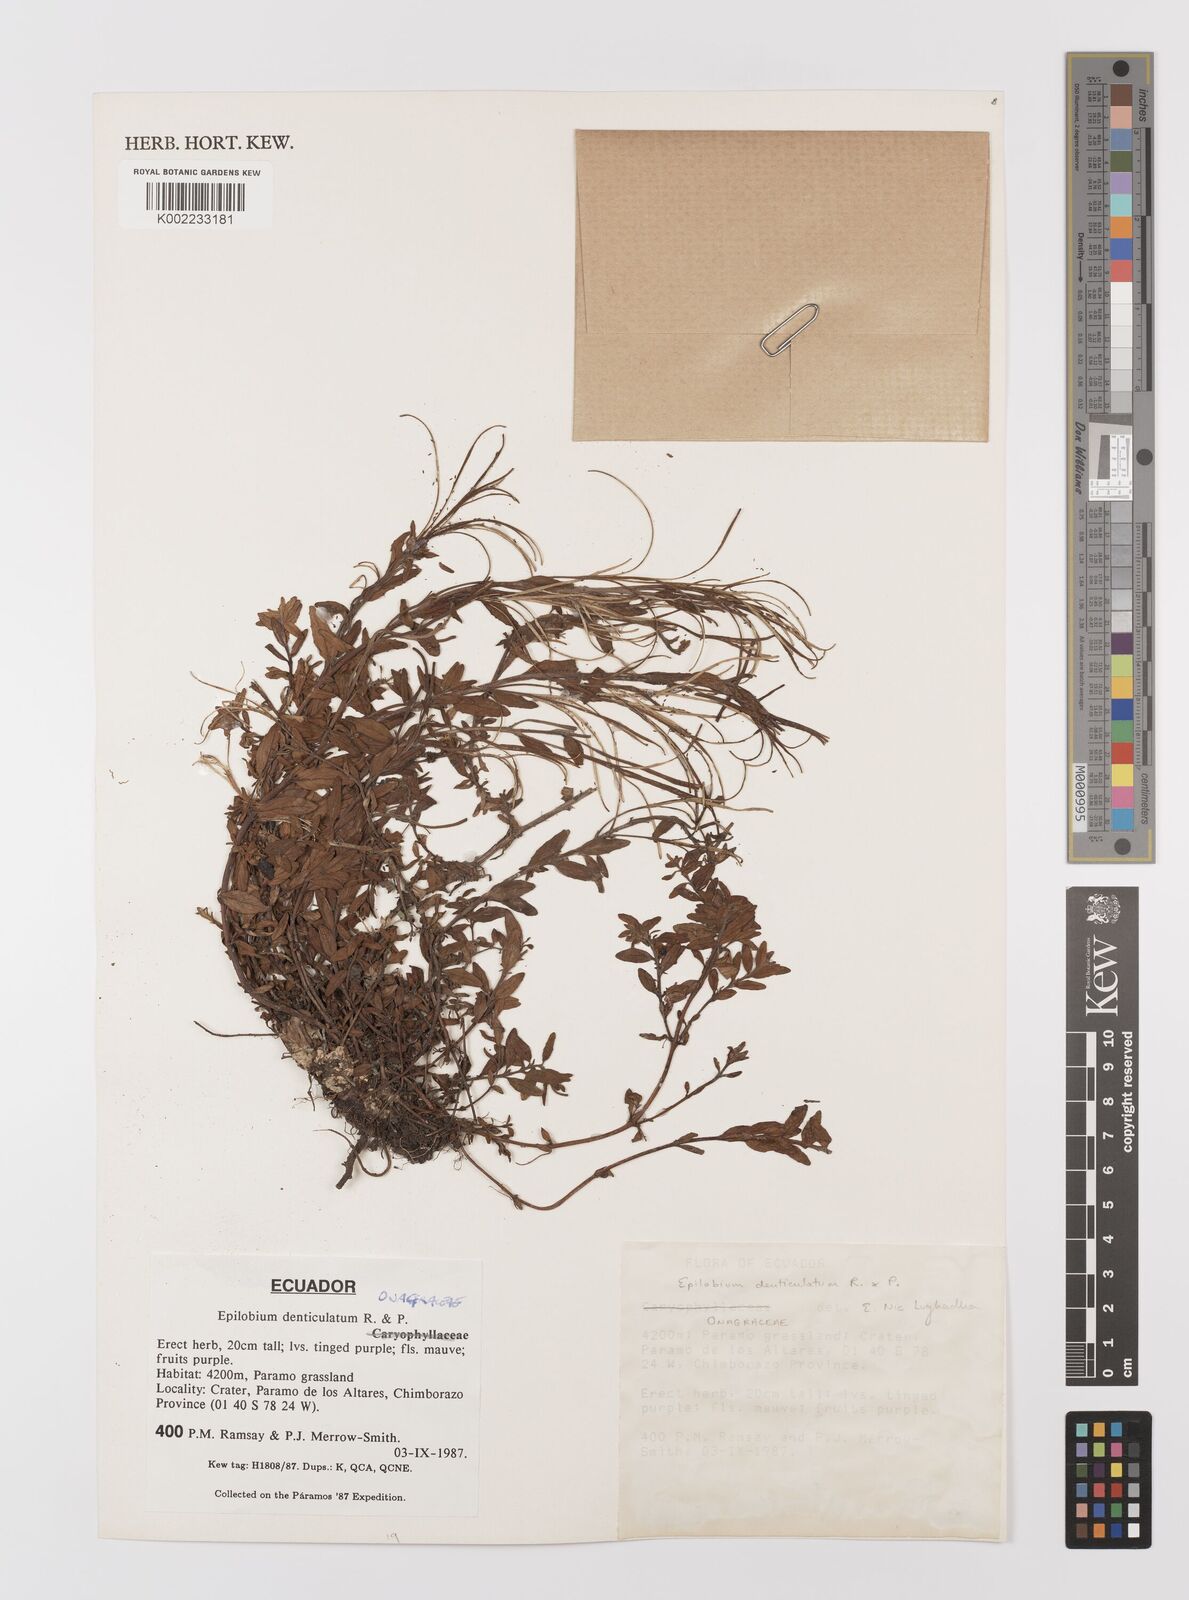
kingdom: Plantae
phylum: Tracheophyta
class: Magnoliopsida
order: Myrtales
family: Onagraceae
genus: Epilobium
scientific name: Epilobium denticulatum
